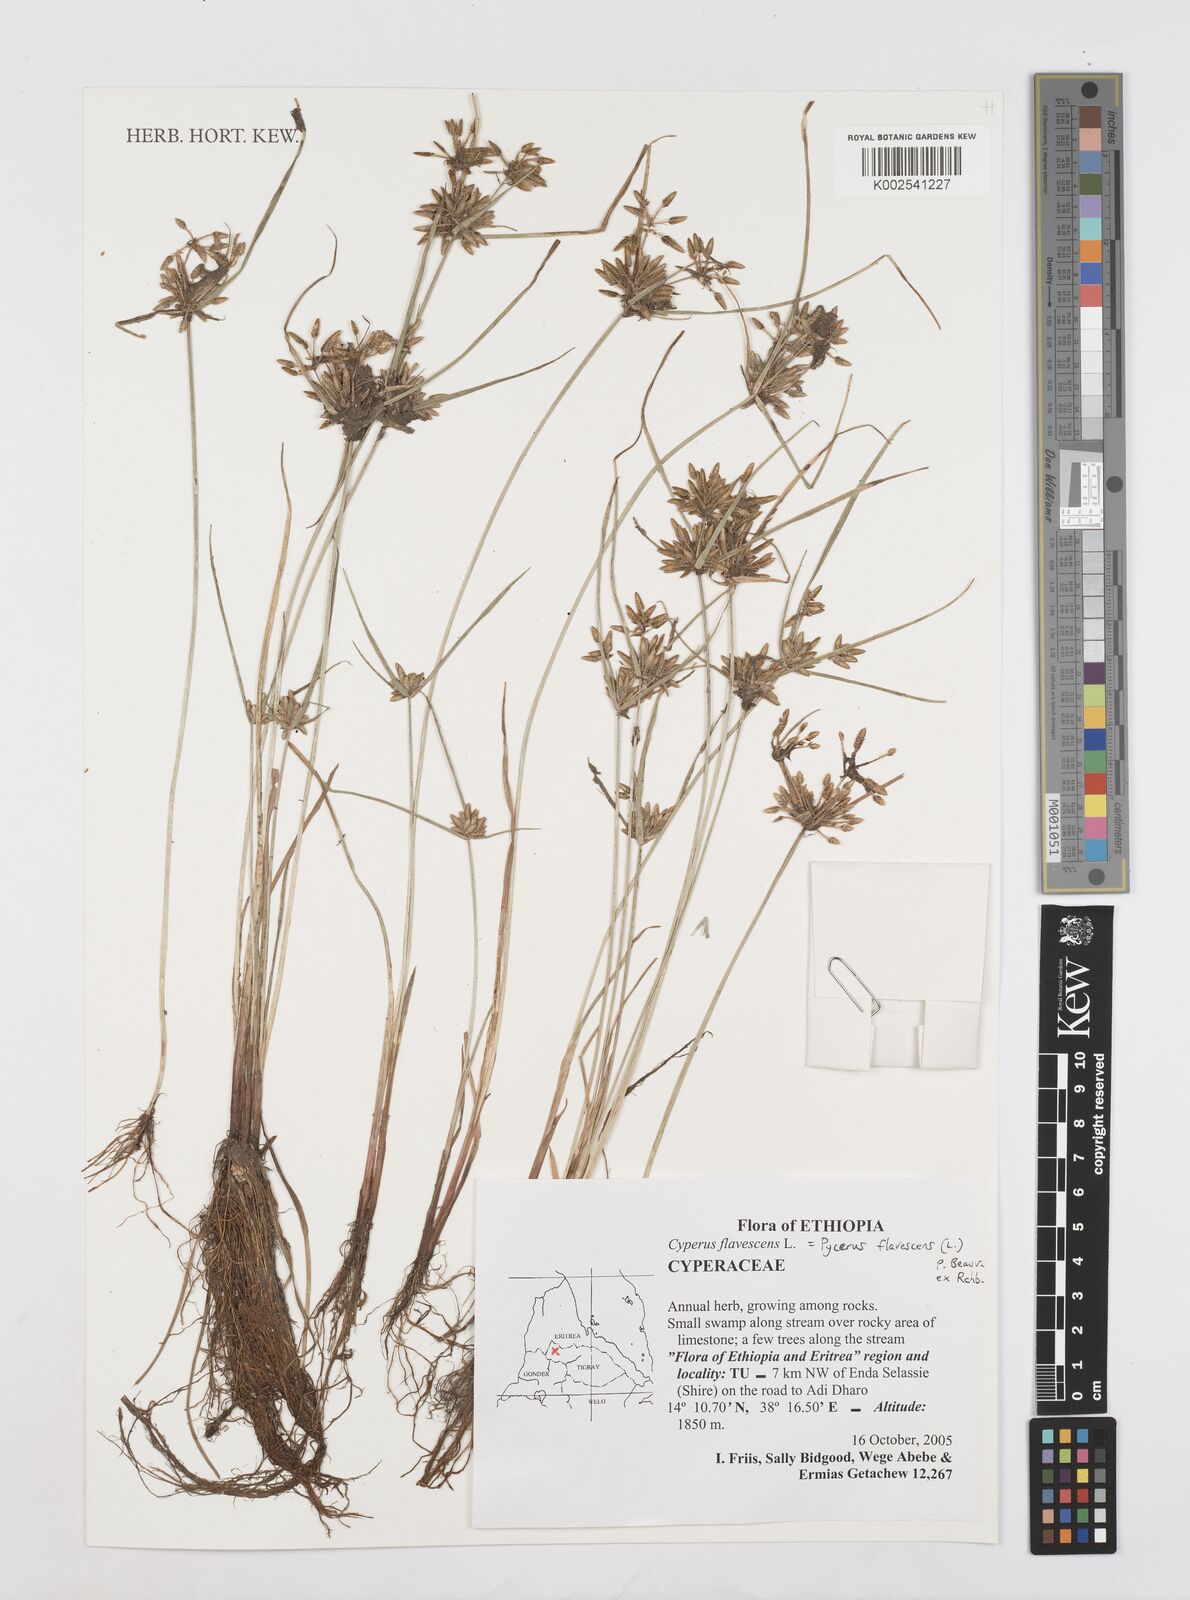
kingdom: Plantae
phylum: Tracheophyta
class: Liliopsida
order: Poales
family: Cyperaceae
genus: Cyperus
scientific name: Cyperus flavescens
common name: Yellow galingale
